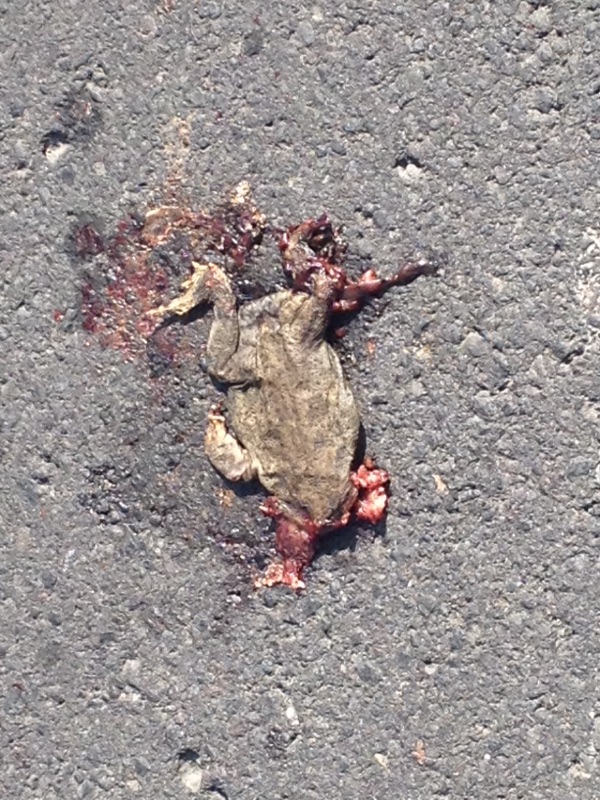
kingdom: Animalia
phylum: Chordata
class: Amphibia
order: Anura
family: Bufonidae
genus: Bufo
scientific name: Bufo bufo
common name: Common toad
